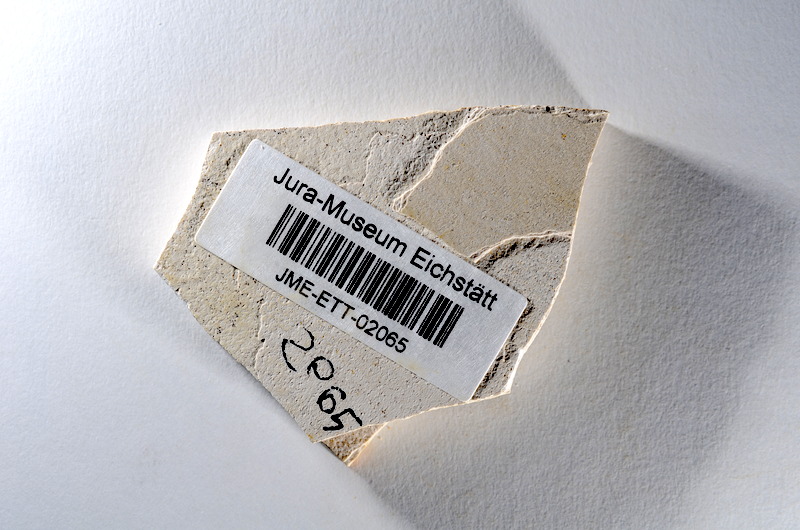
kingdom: Animalia
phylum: Chordata
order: Salmoniformes
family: Orthogonikleithridae
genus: Orthogonikleithrus
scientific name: Orthogonikleithrus hoelli
